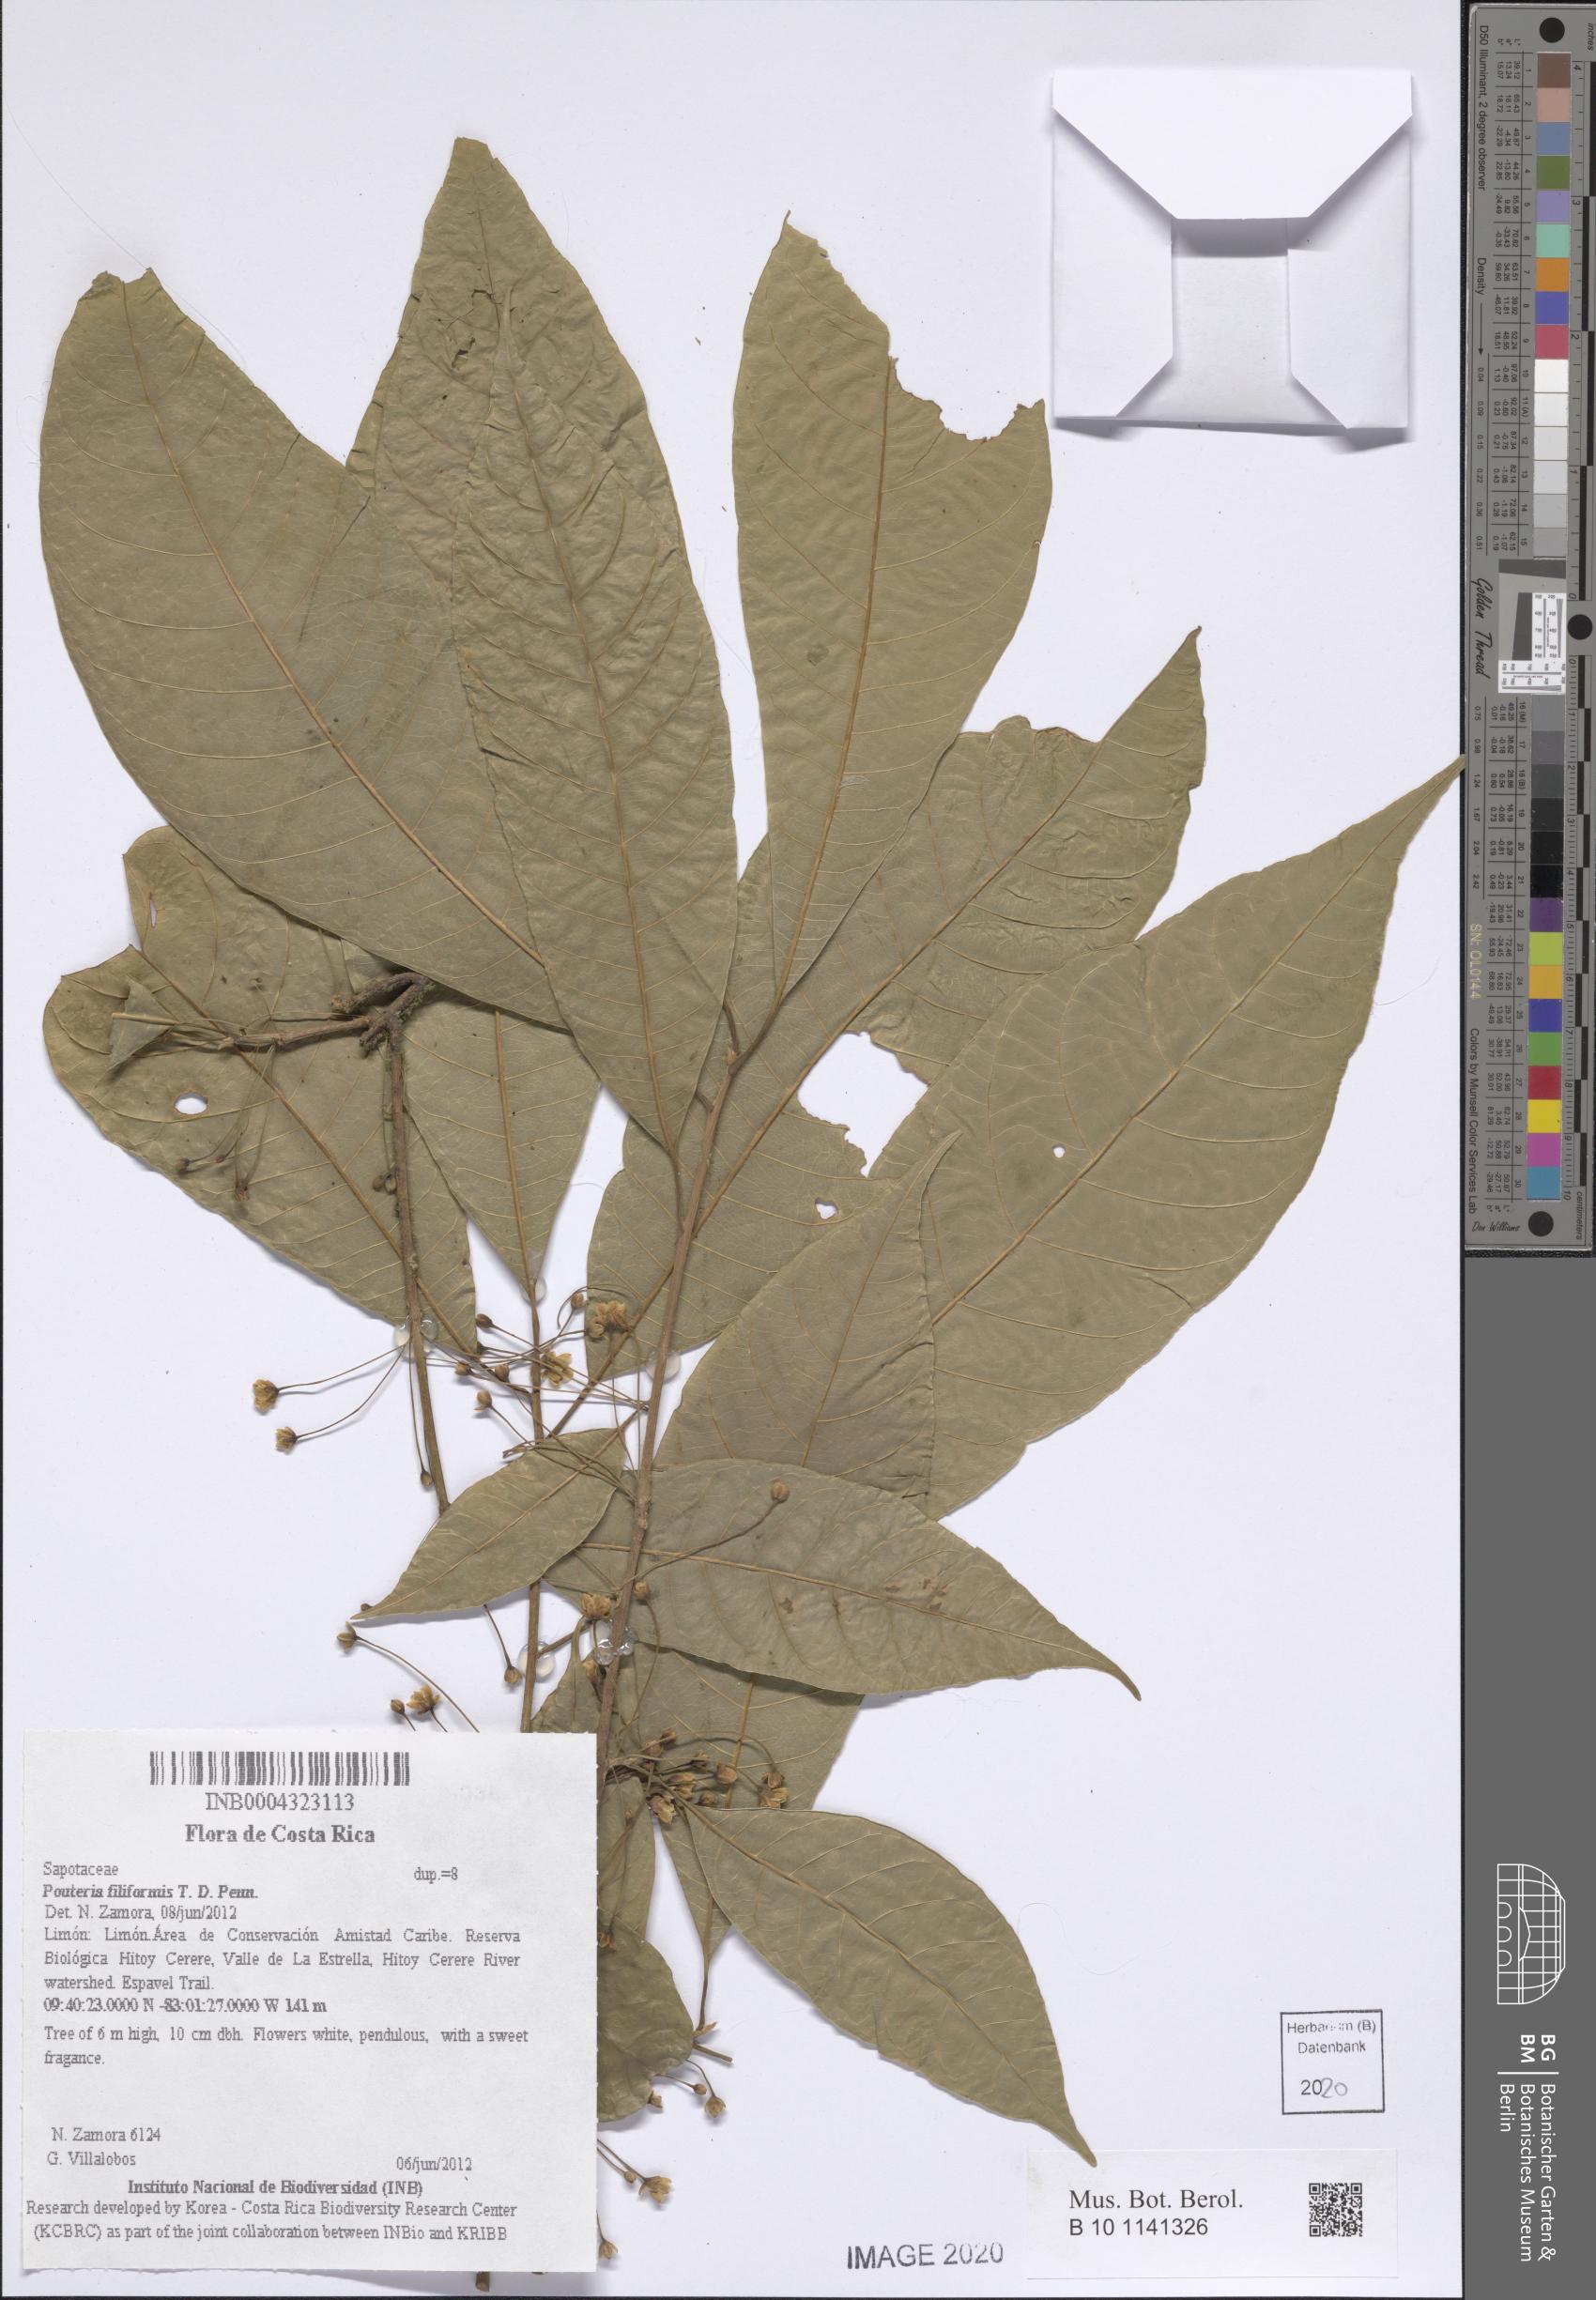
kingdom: Plantae
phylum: Tracheophyta
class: Magnoliopsida
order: Ericales
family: Sapotaceae
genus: Pouteria
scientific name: Pouteria filiformis
